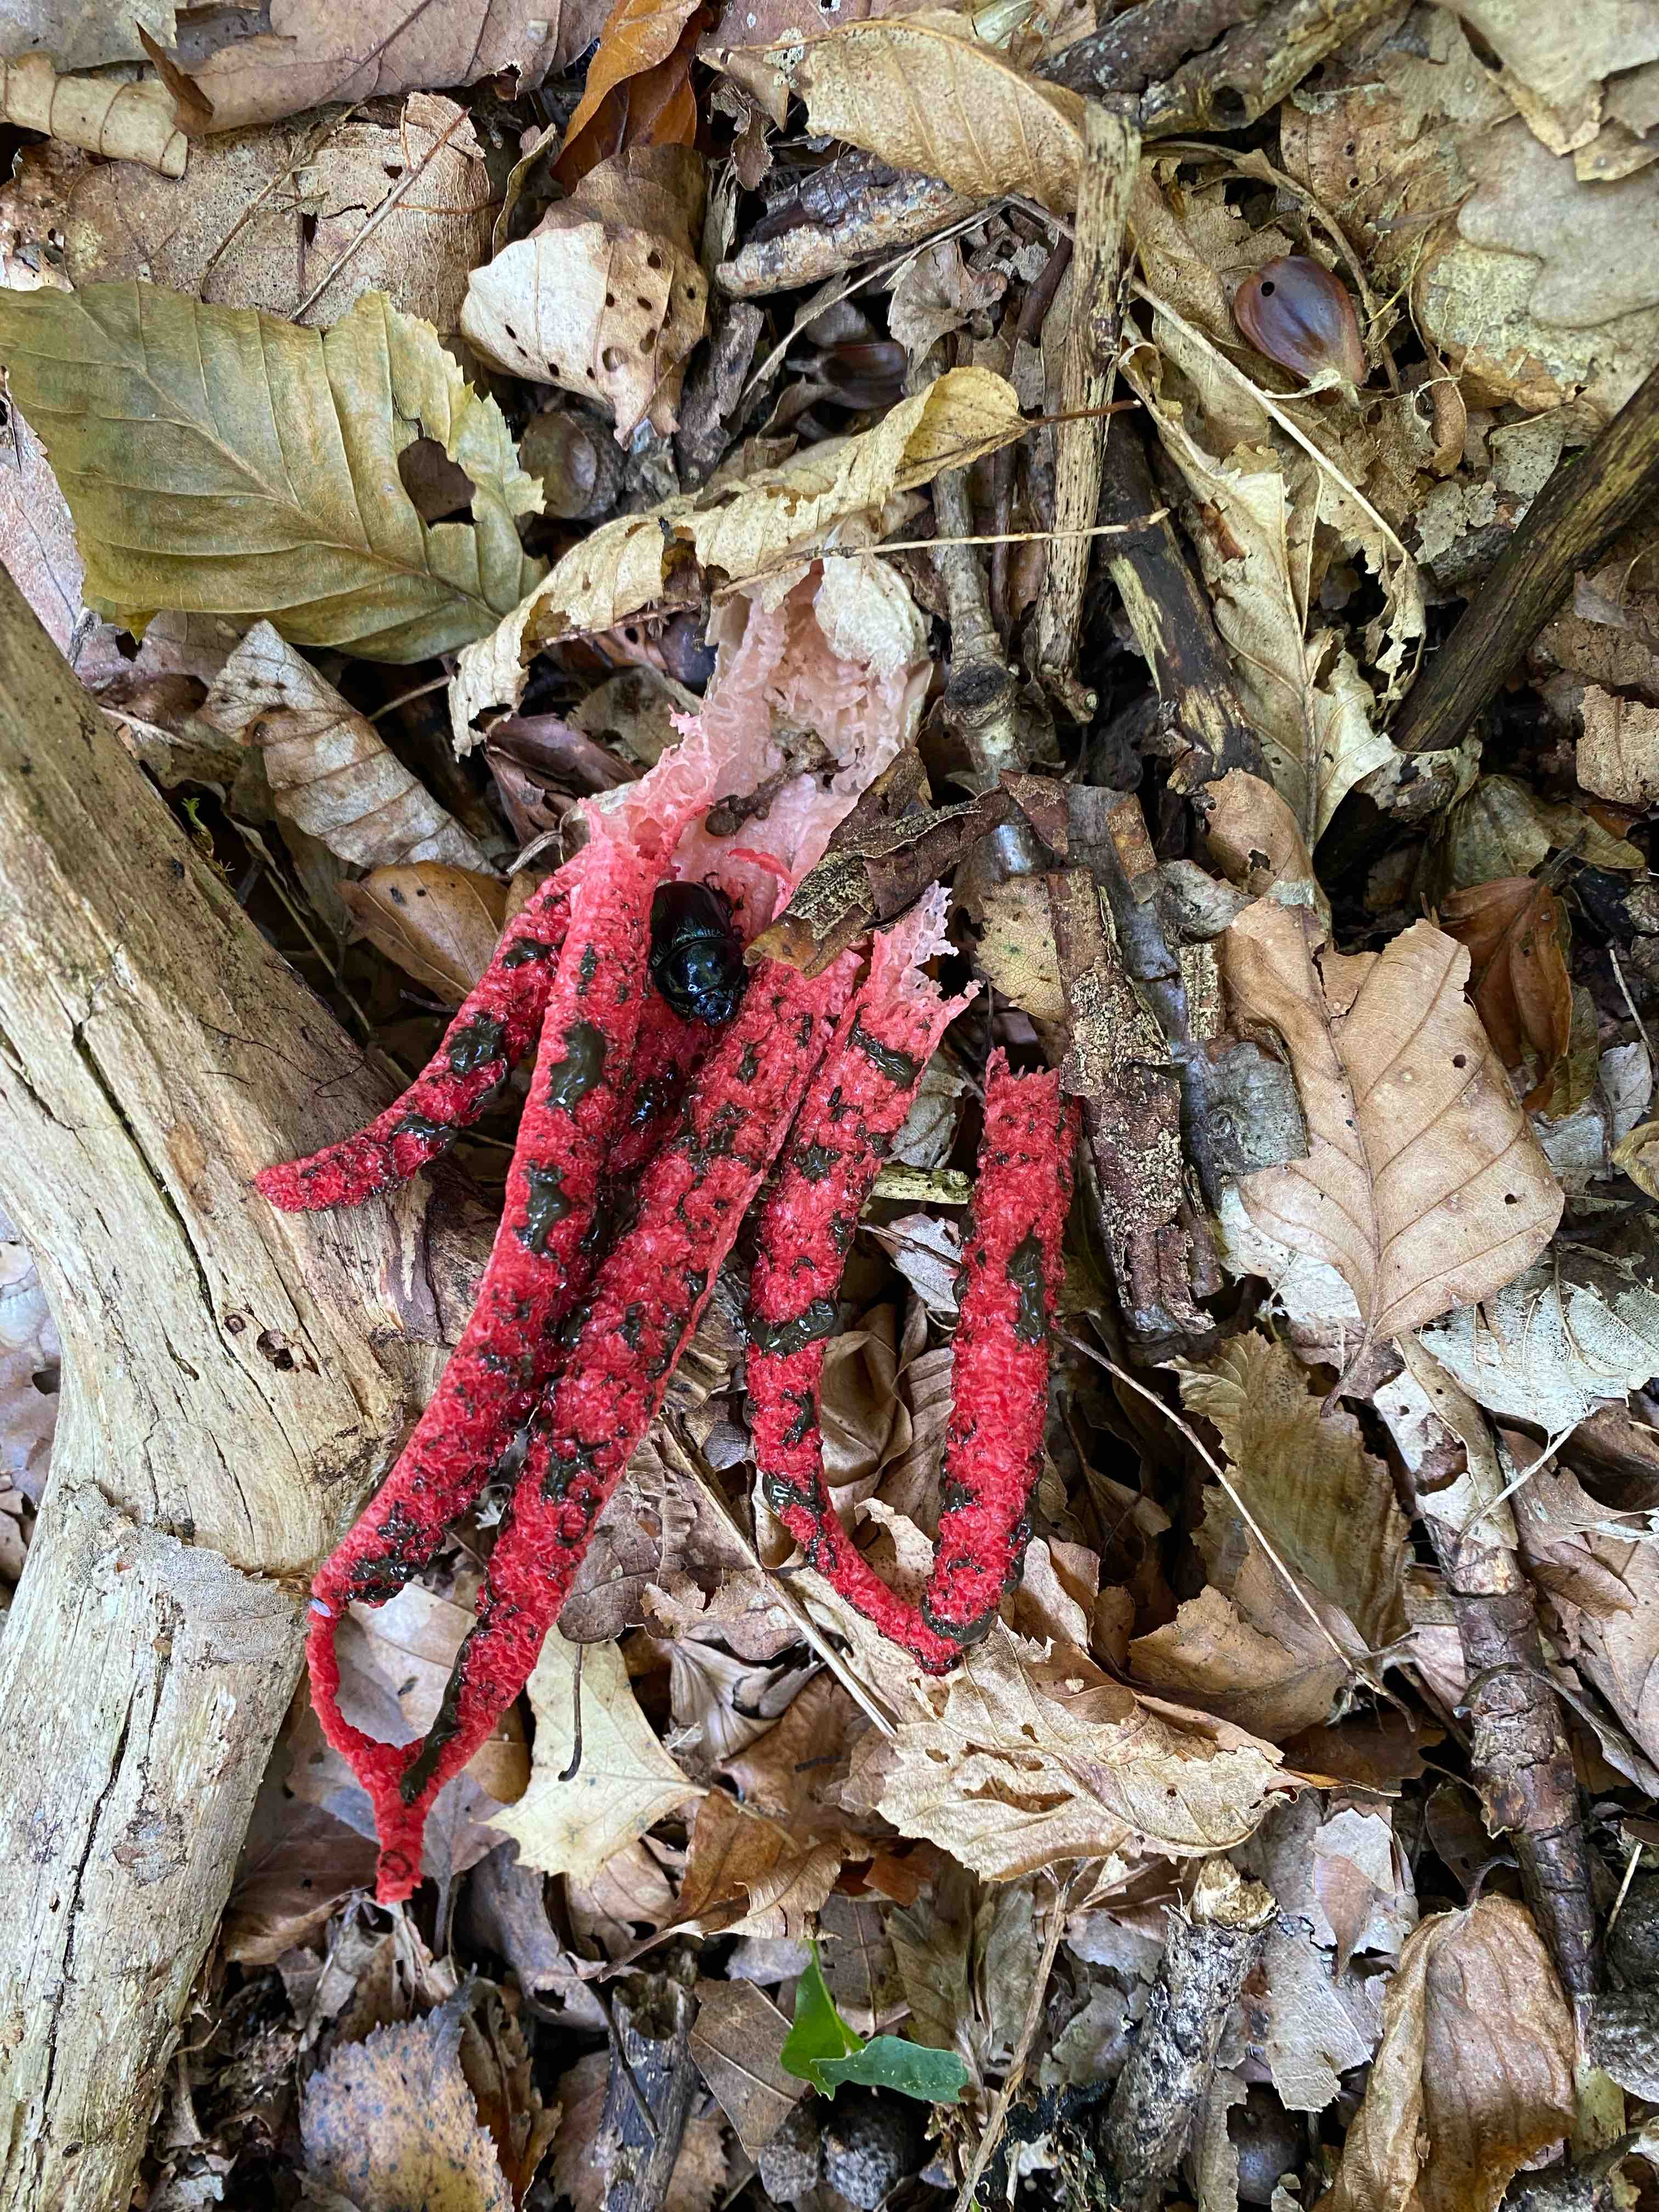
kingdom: Fungi
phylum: Basidiomycota
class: Agaricomycetes
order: Phallales
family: Phallaceae
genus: Clathrus
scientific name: Clathrus archeri
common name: blækspruttesvamp
